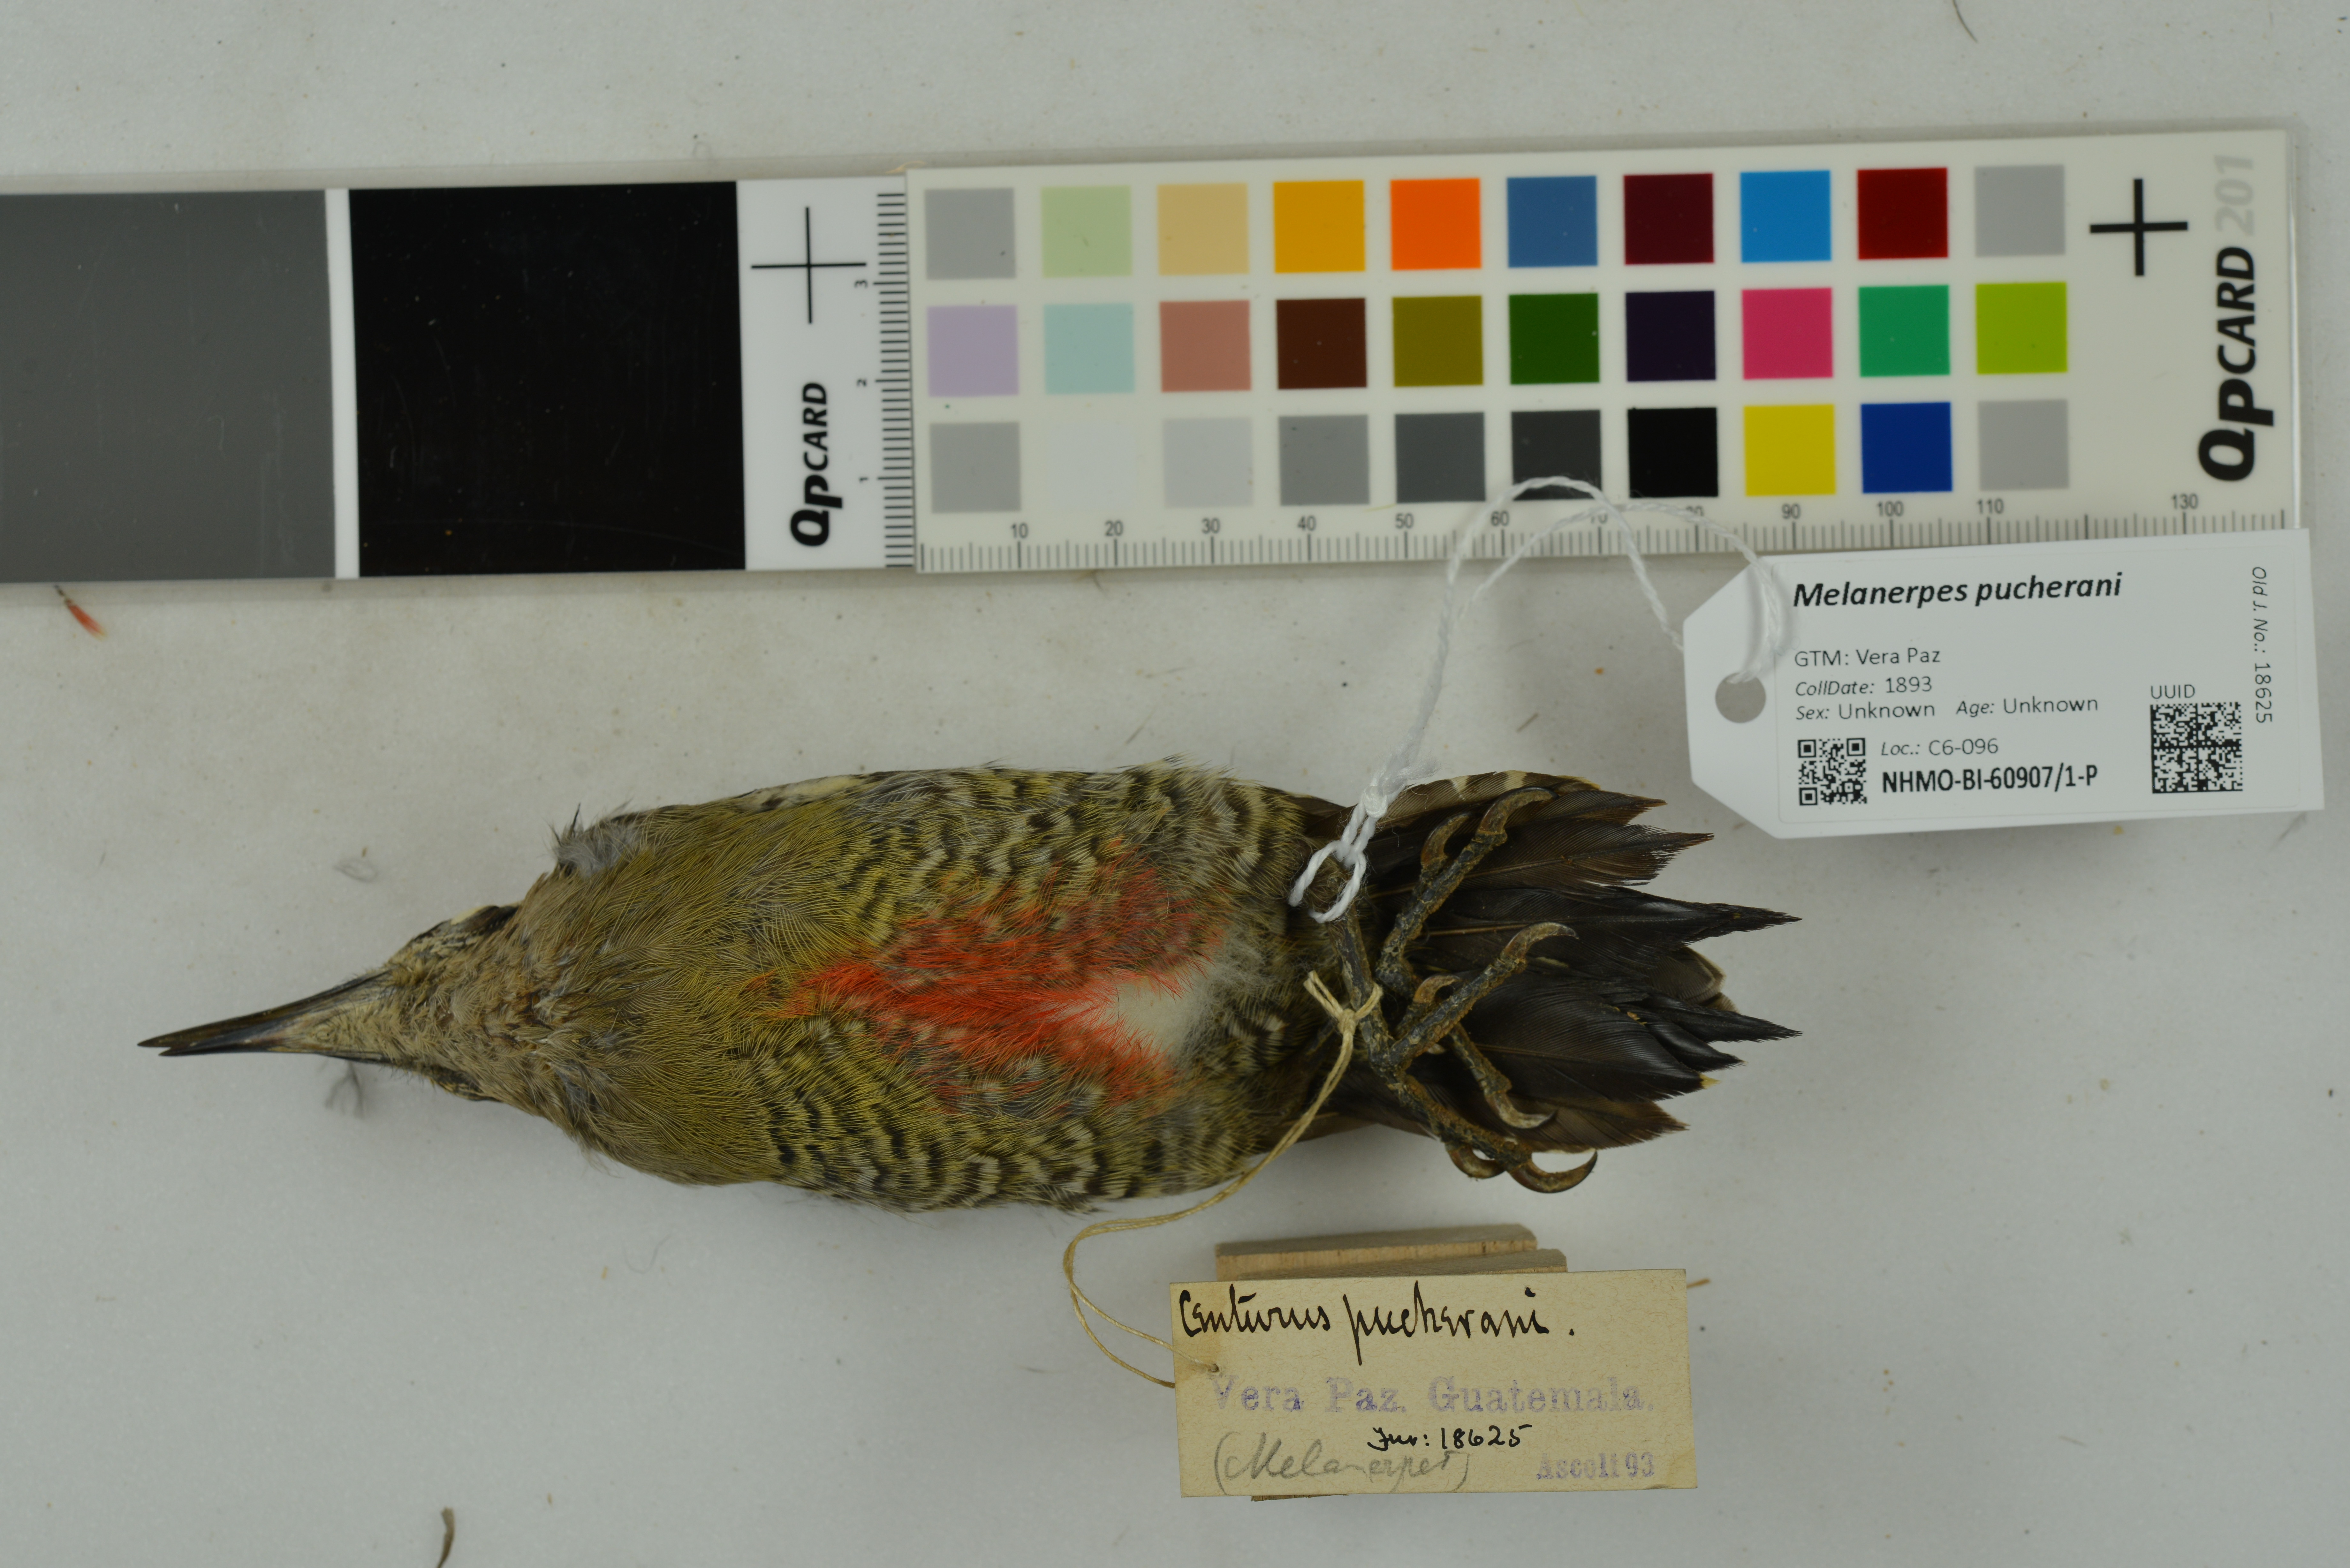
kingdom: Animalia
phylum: Chordata
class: Aves
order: Piciformes
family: Picidae
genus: Melanerpes
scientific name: Melanerpes pucherani
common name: Black-cheeked woodpecker
